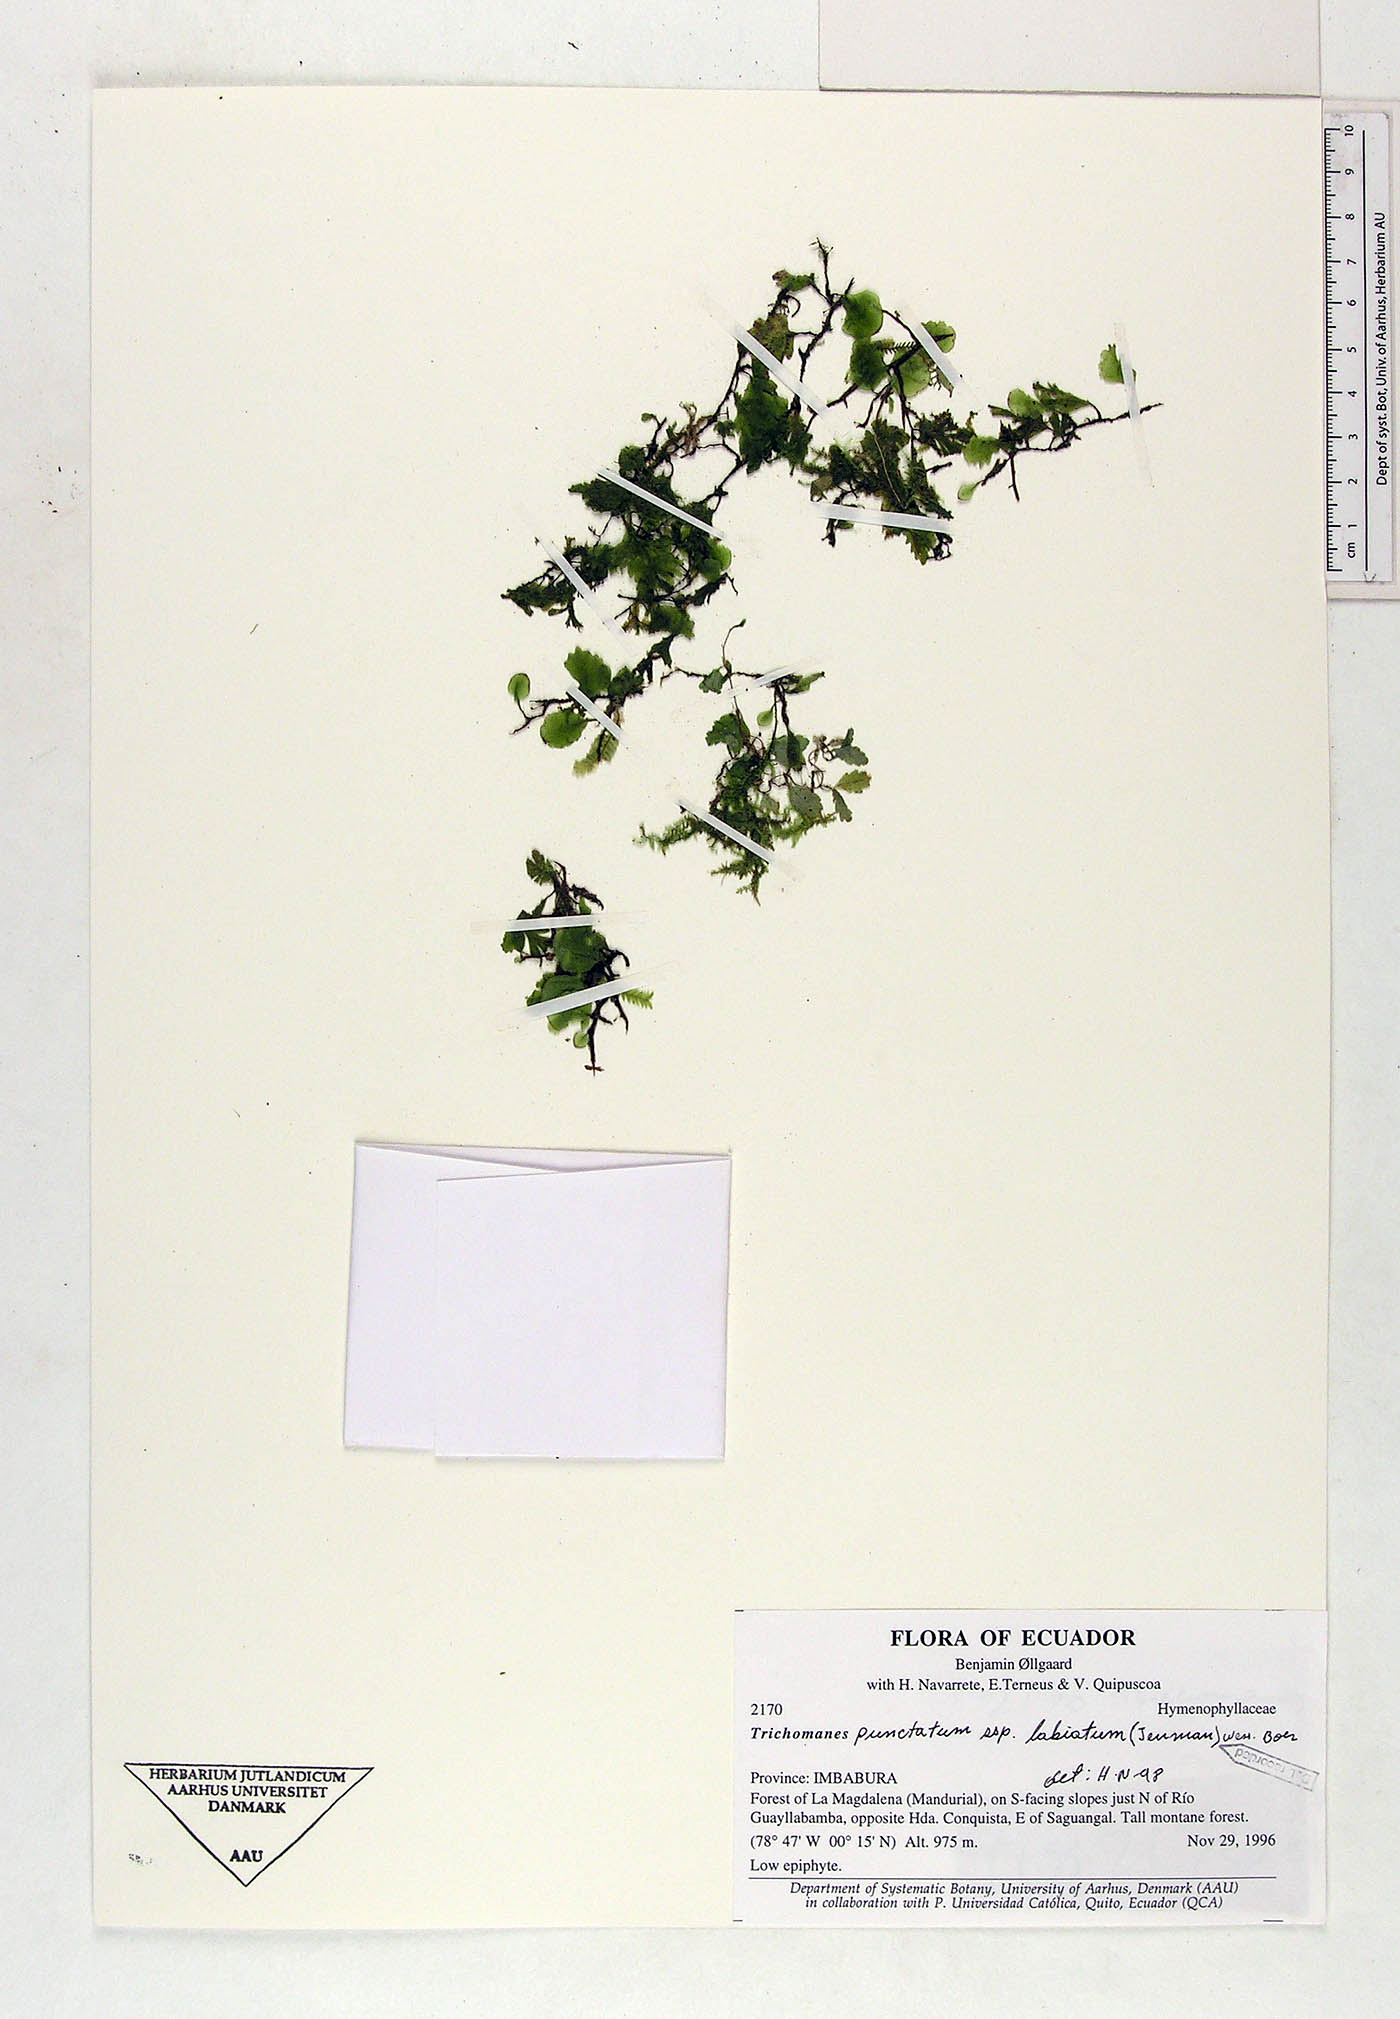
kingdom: Plantae
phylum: Tracheophyta
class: Polypodiopsida
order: Hymenophyllales
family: Hymenophyllaceae
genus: Didymoglossum
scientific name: Didymoglossum punctatum
